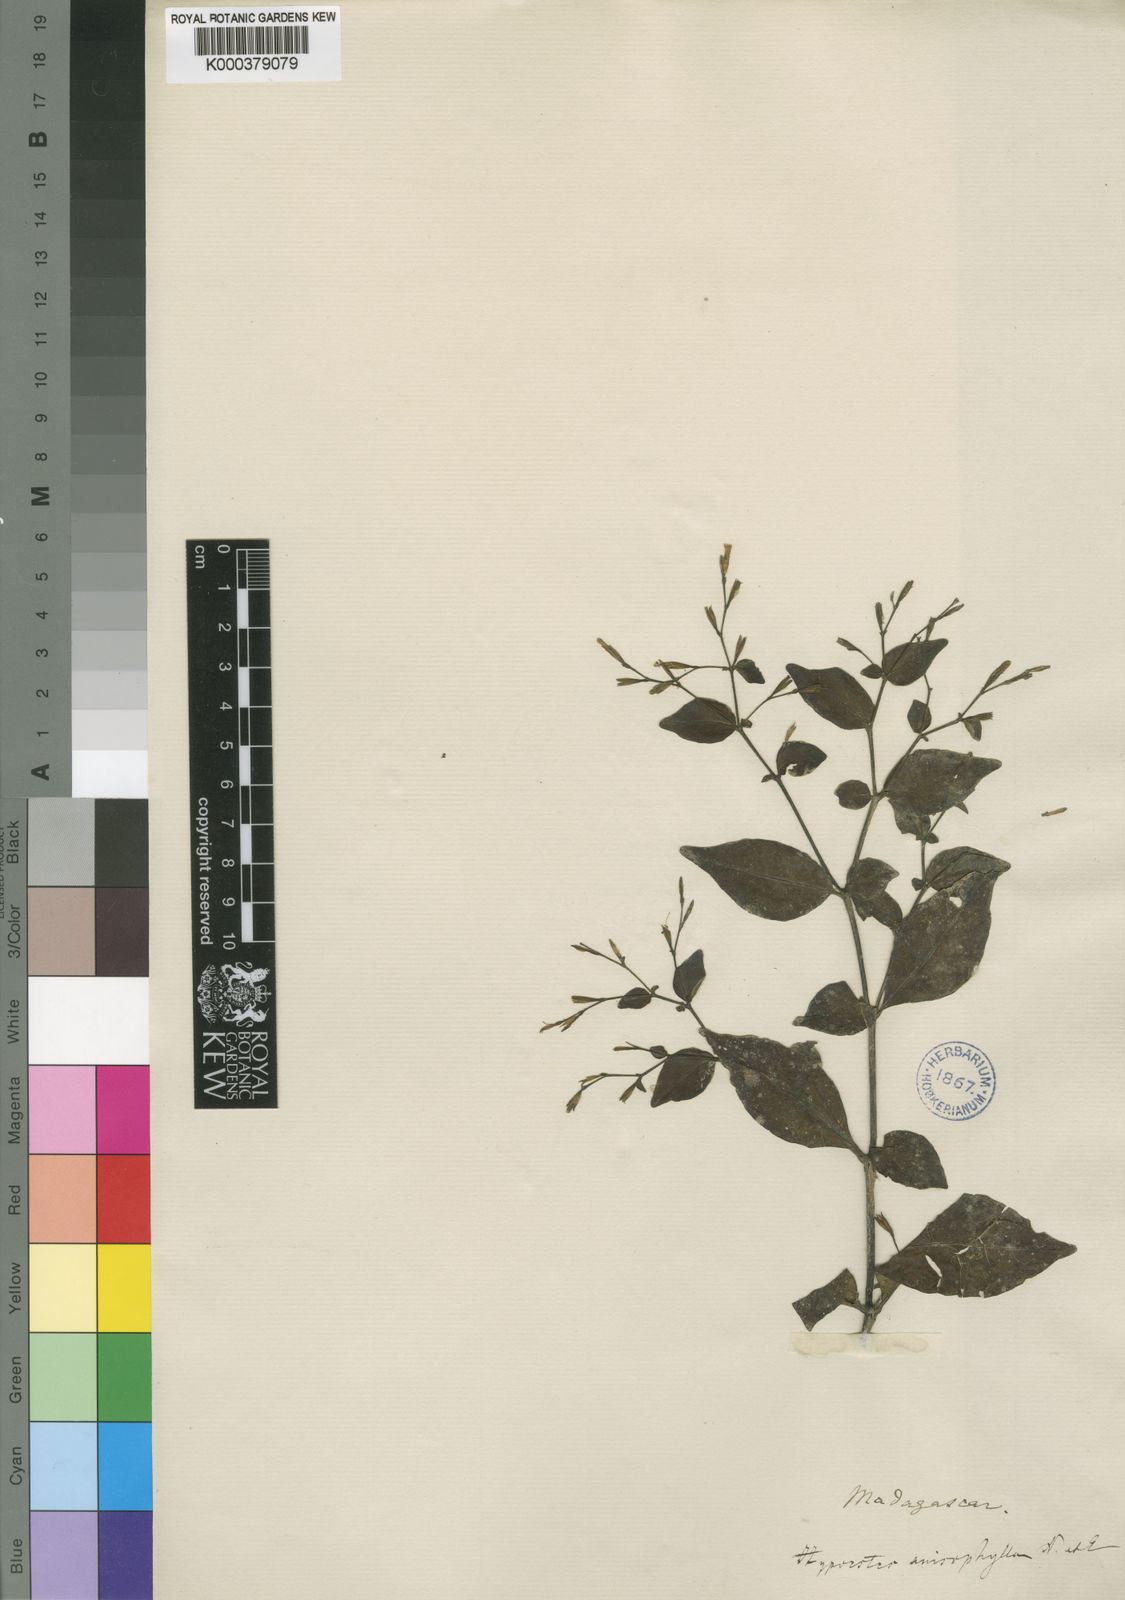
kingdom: Plantae
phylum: Tracheophyta
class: Magnoliopsida
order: Lamiales
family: Acanthaceae
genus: Hypoestes
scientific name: Hypoestes anisophylla
